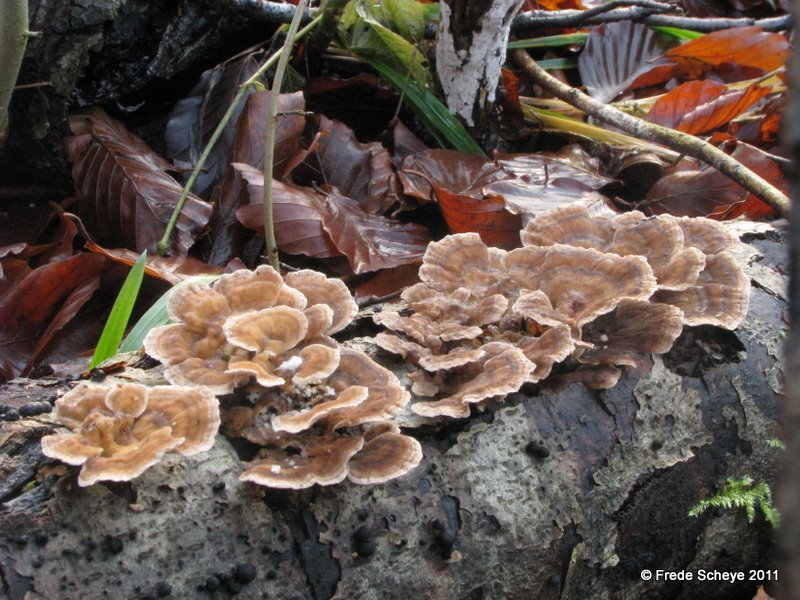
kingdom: Fungi
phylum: Basidiomycota
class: Agaricomycetes
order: Polyporales
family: Polyporaceae
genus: Trametes
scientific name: Trametes versicolor
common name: broget læderporesvamp
